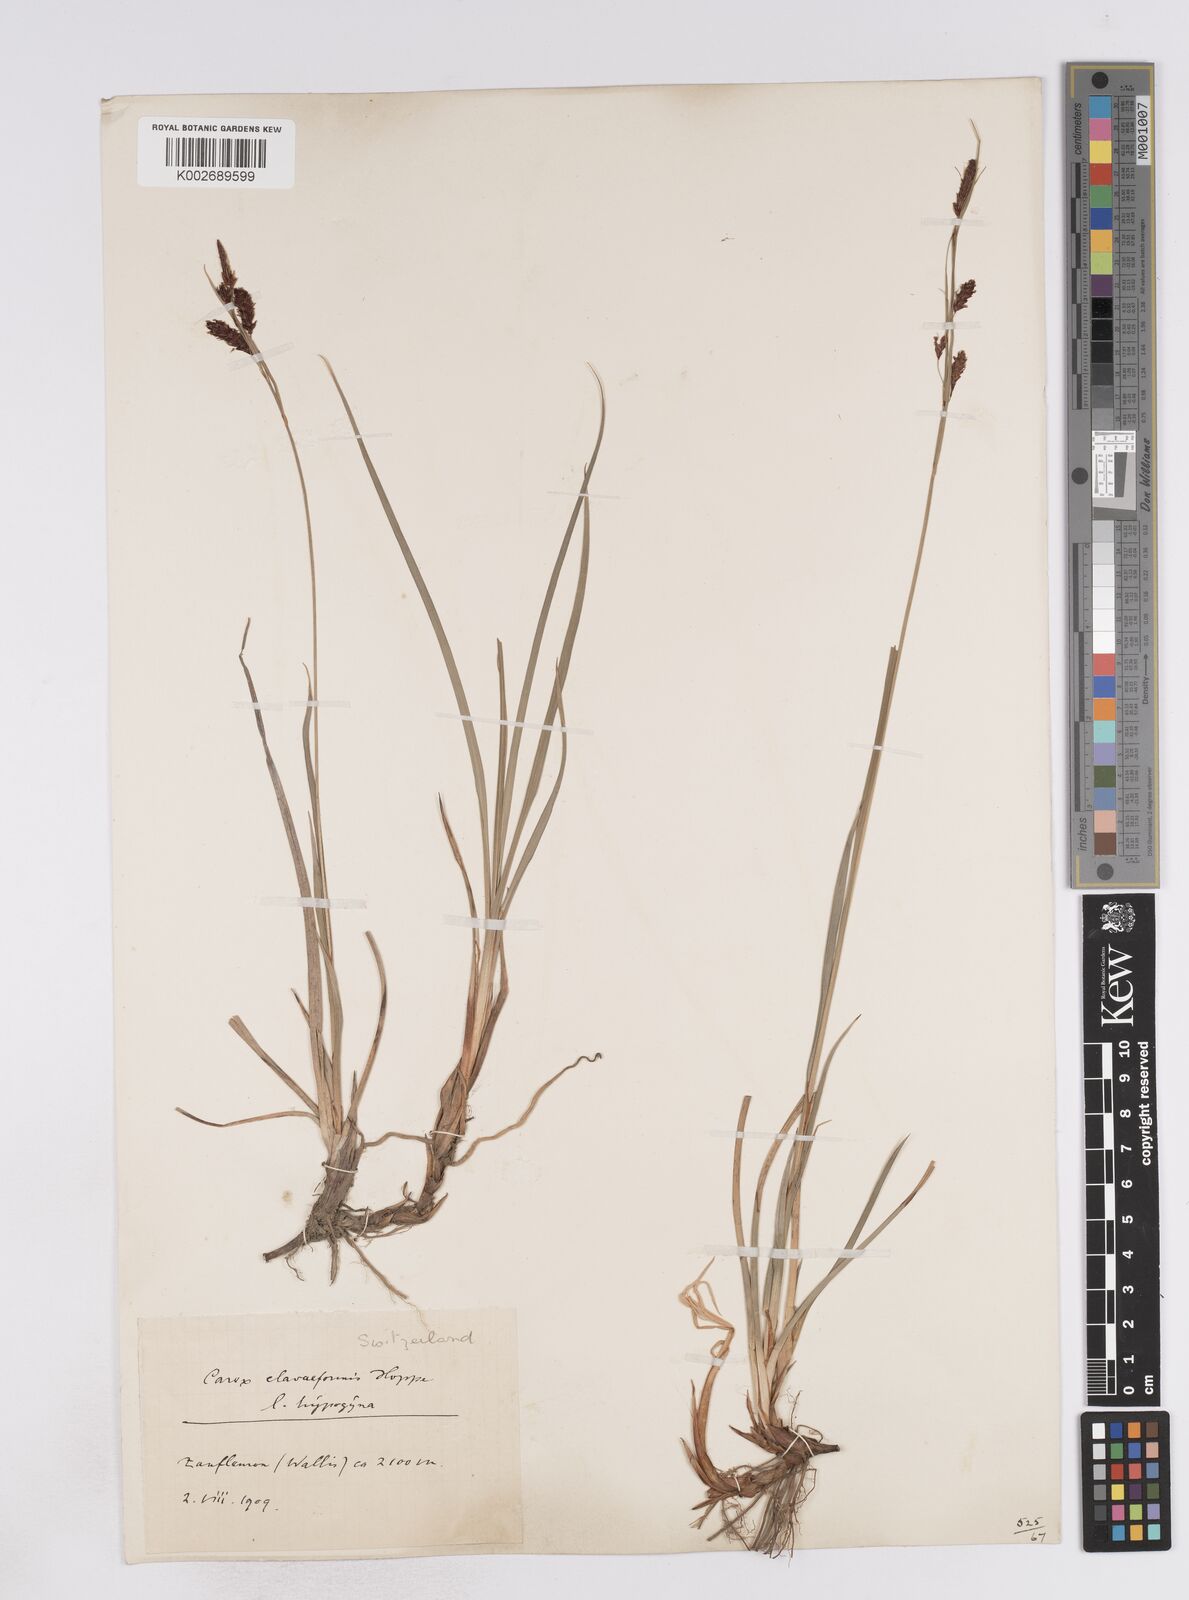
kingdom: Plantae
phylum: Tracheophyta
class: Liliopsida
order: Poales
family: Cyperaceae
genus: Carex
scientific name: Carex flacca
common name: Glaucous sedge
